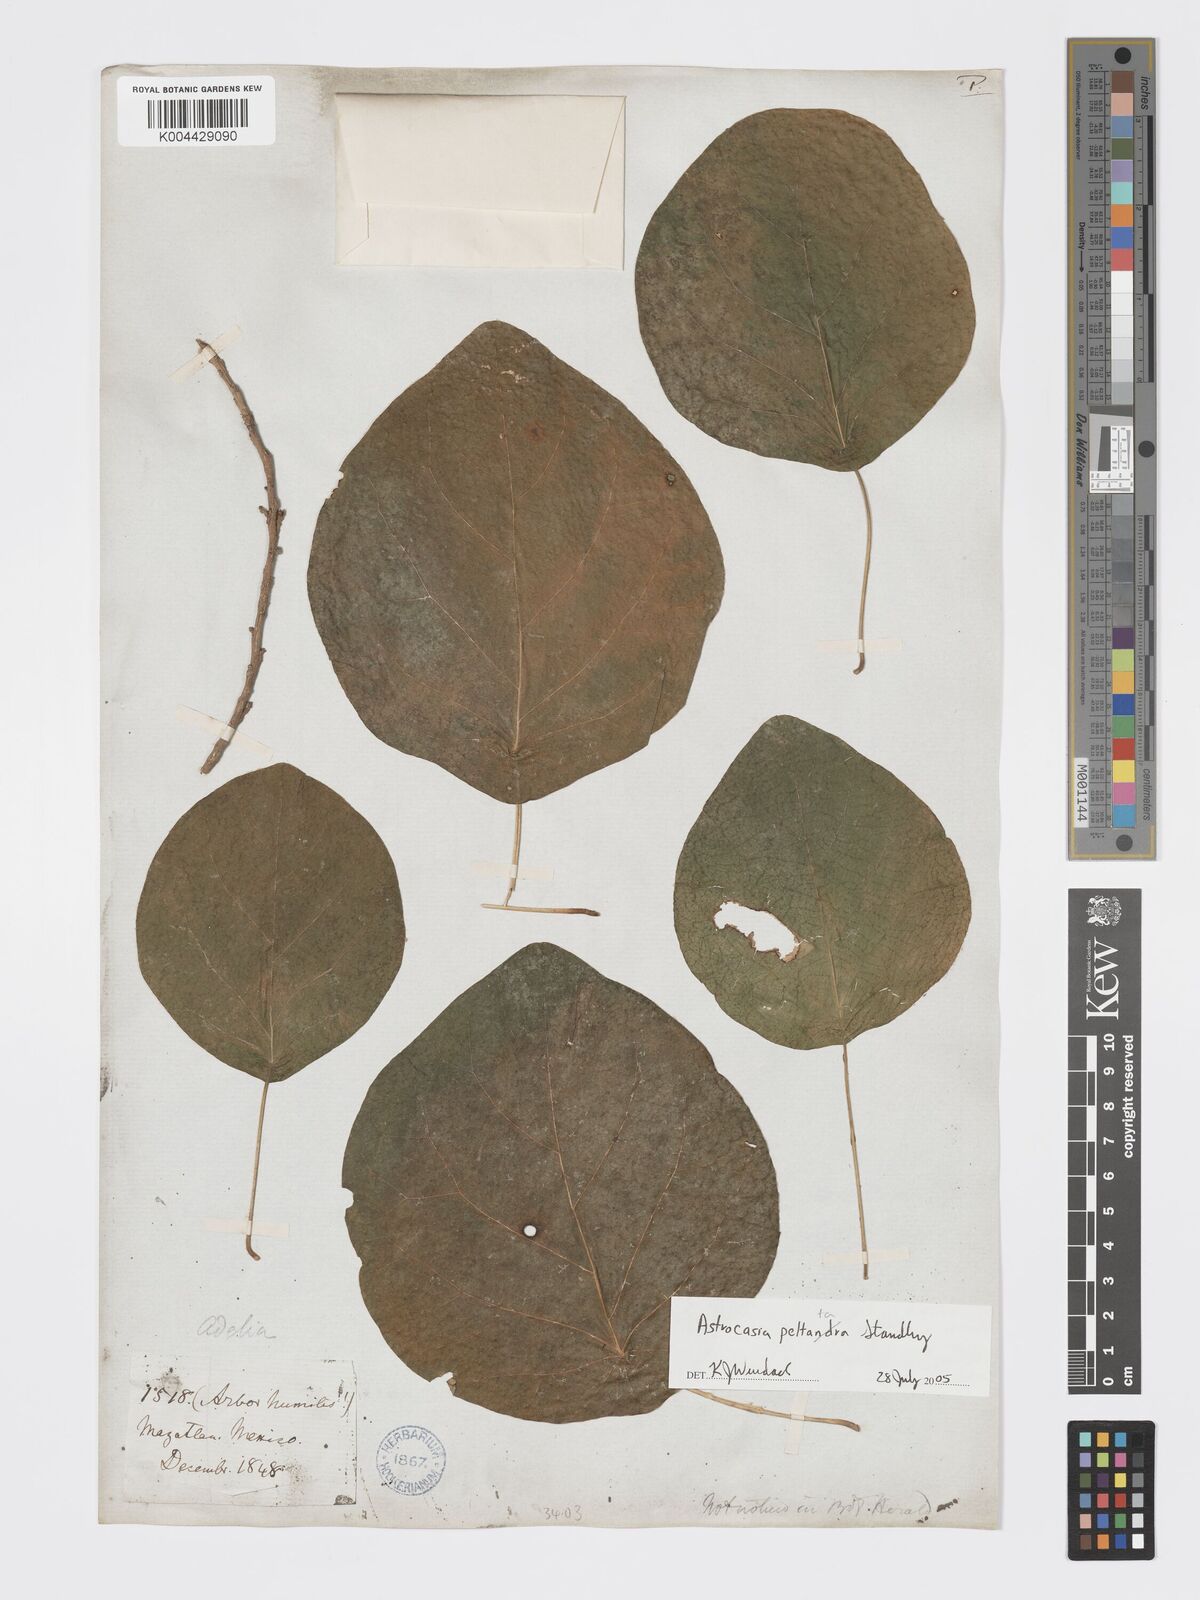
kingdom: Plantae
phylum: Tracheophyta
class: Magnoliopsida
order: Malpighiales
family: Phyllanthaceae
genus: Astrocasia
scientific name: Astrocasia peltata
